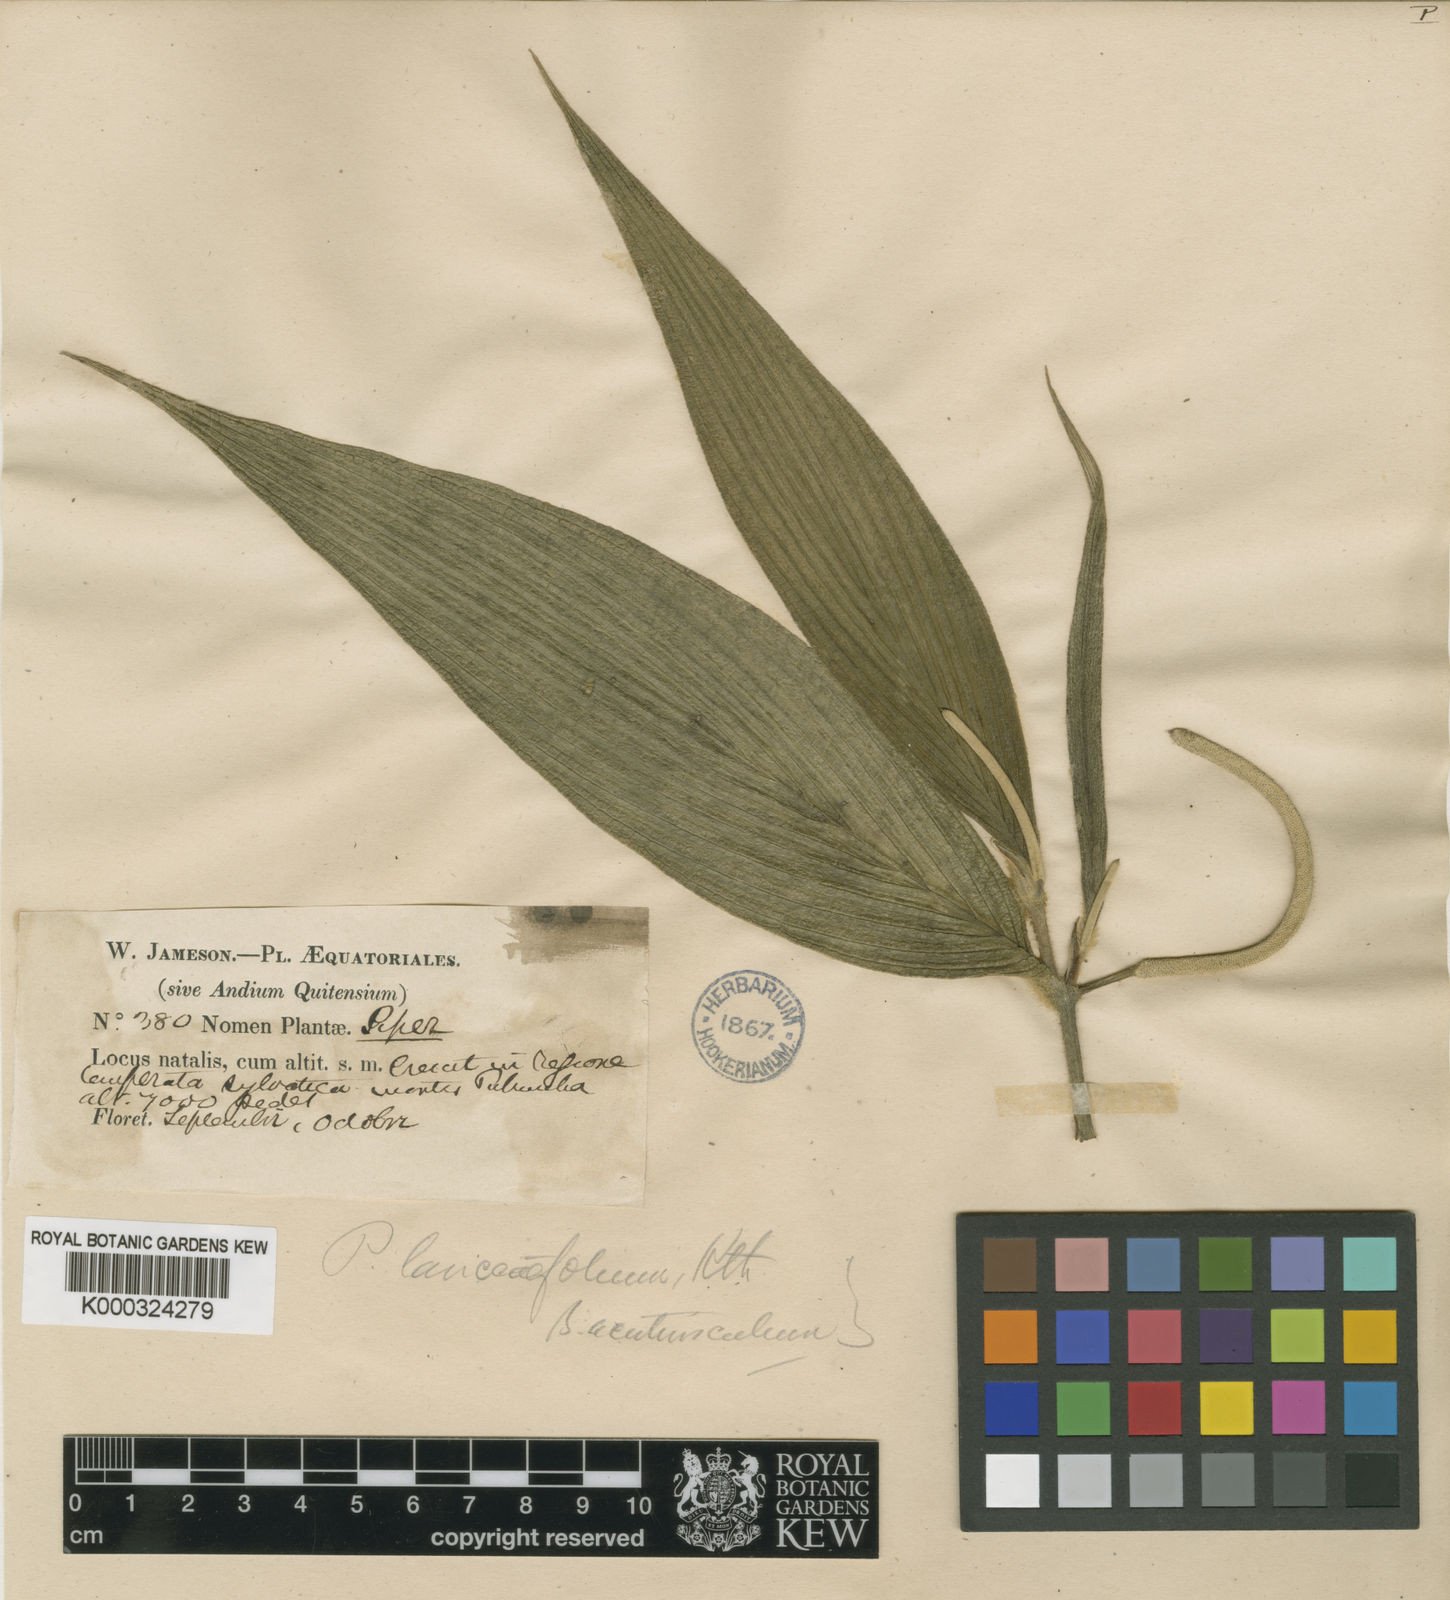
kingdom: Plantae
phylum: Tracheophyta
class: Magnoliopsida
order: Piperales
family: Piperaceae
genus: Piper
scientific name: Piper lanceifolium
